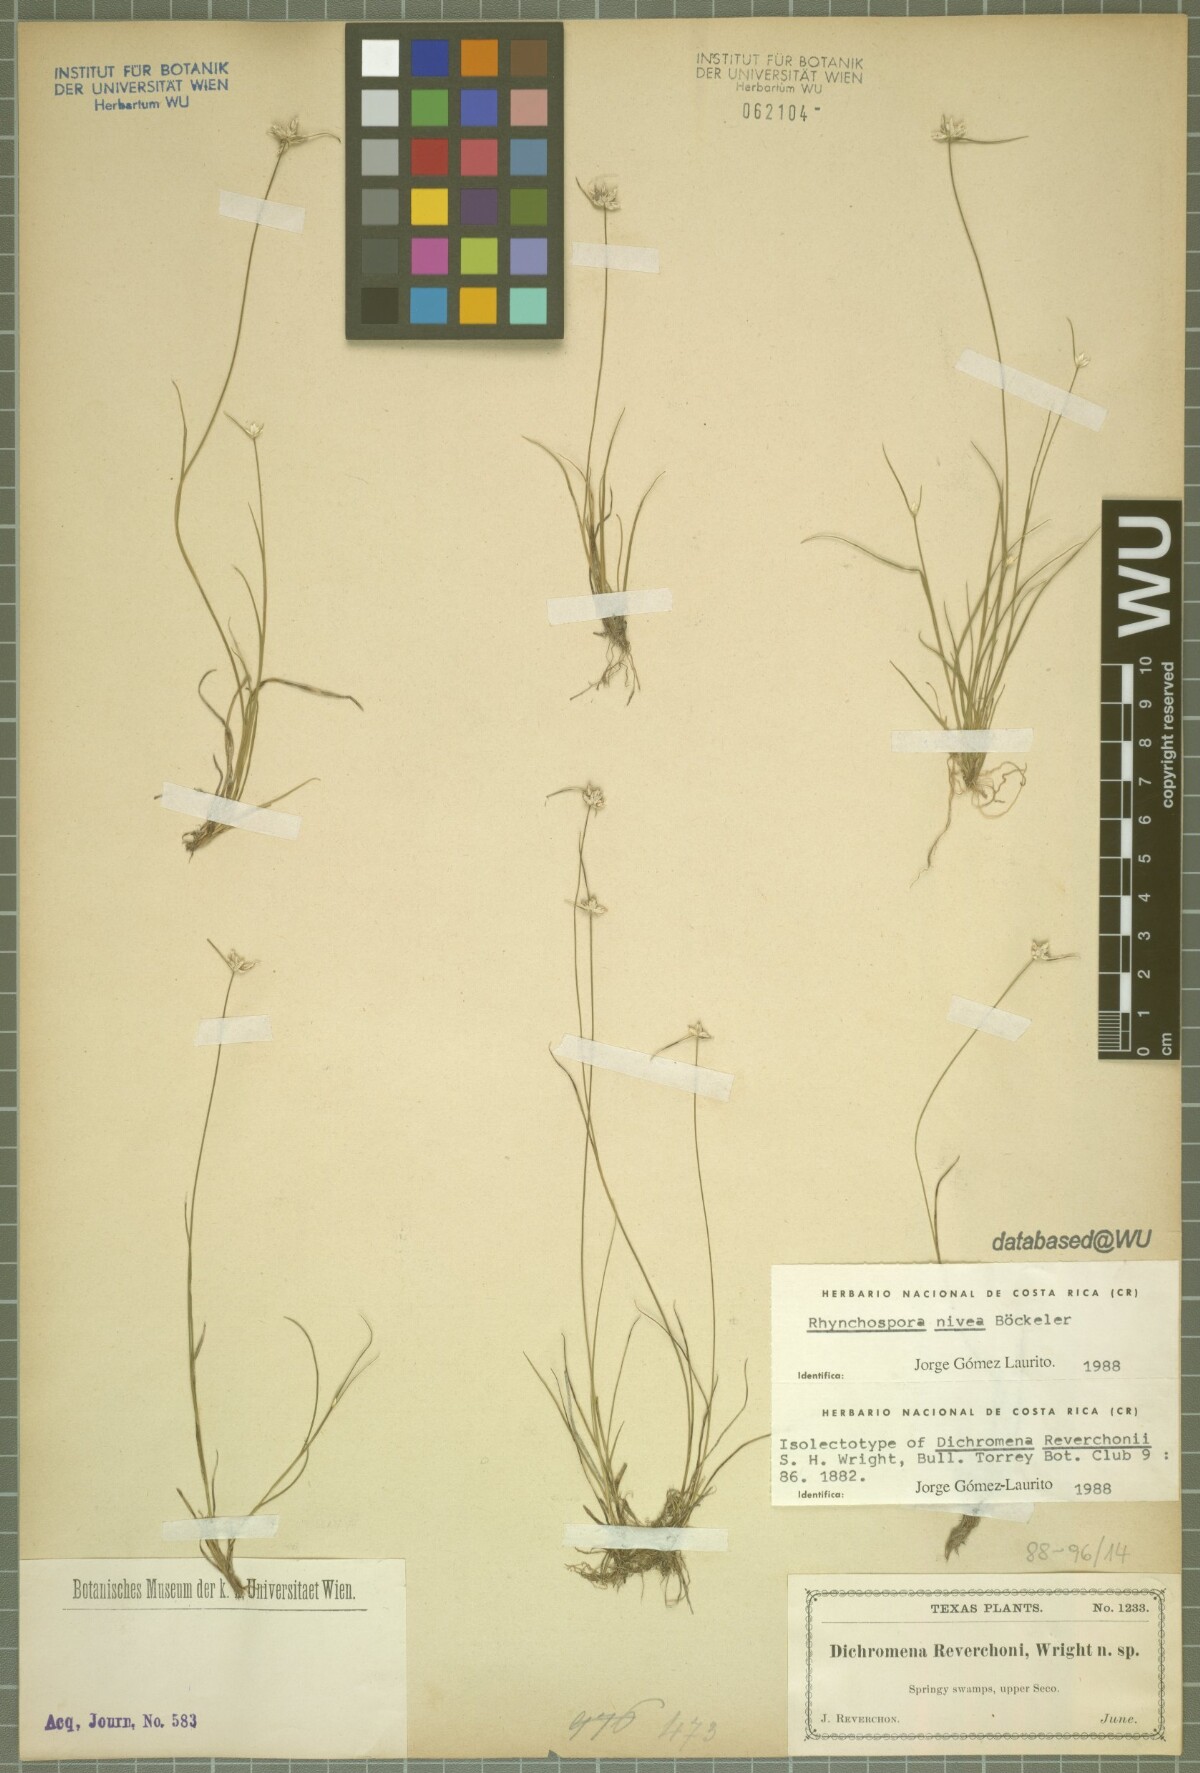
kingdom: Plantae
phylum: Tracheophyta
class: Liliopsida
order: Poales
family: Cyperaceae
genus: Rhynchospora
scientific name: Rhynchospora nivea
